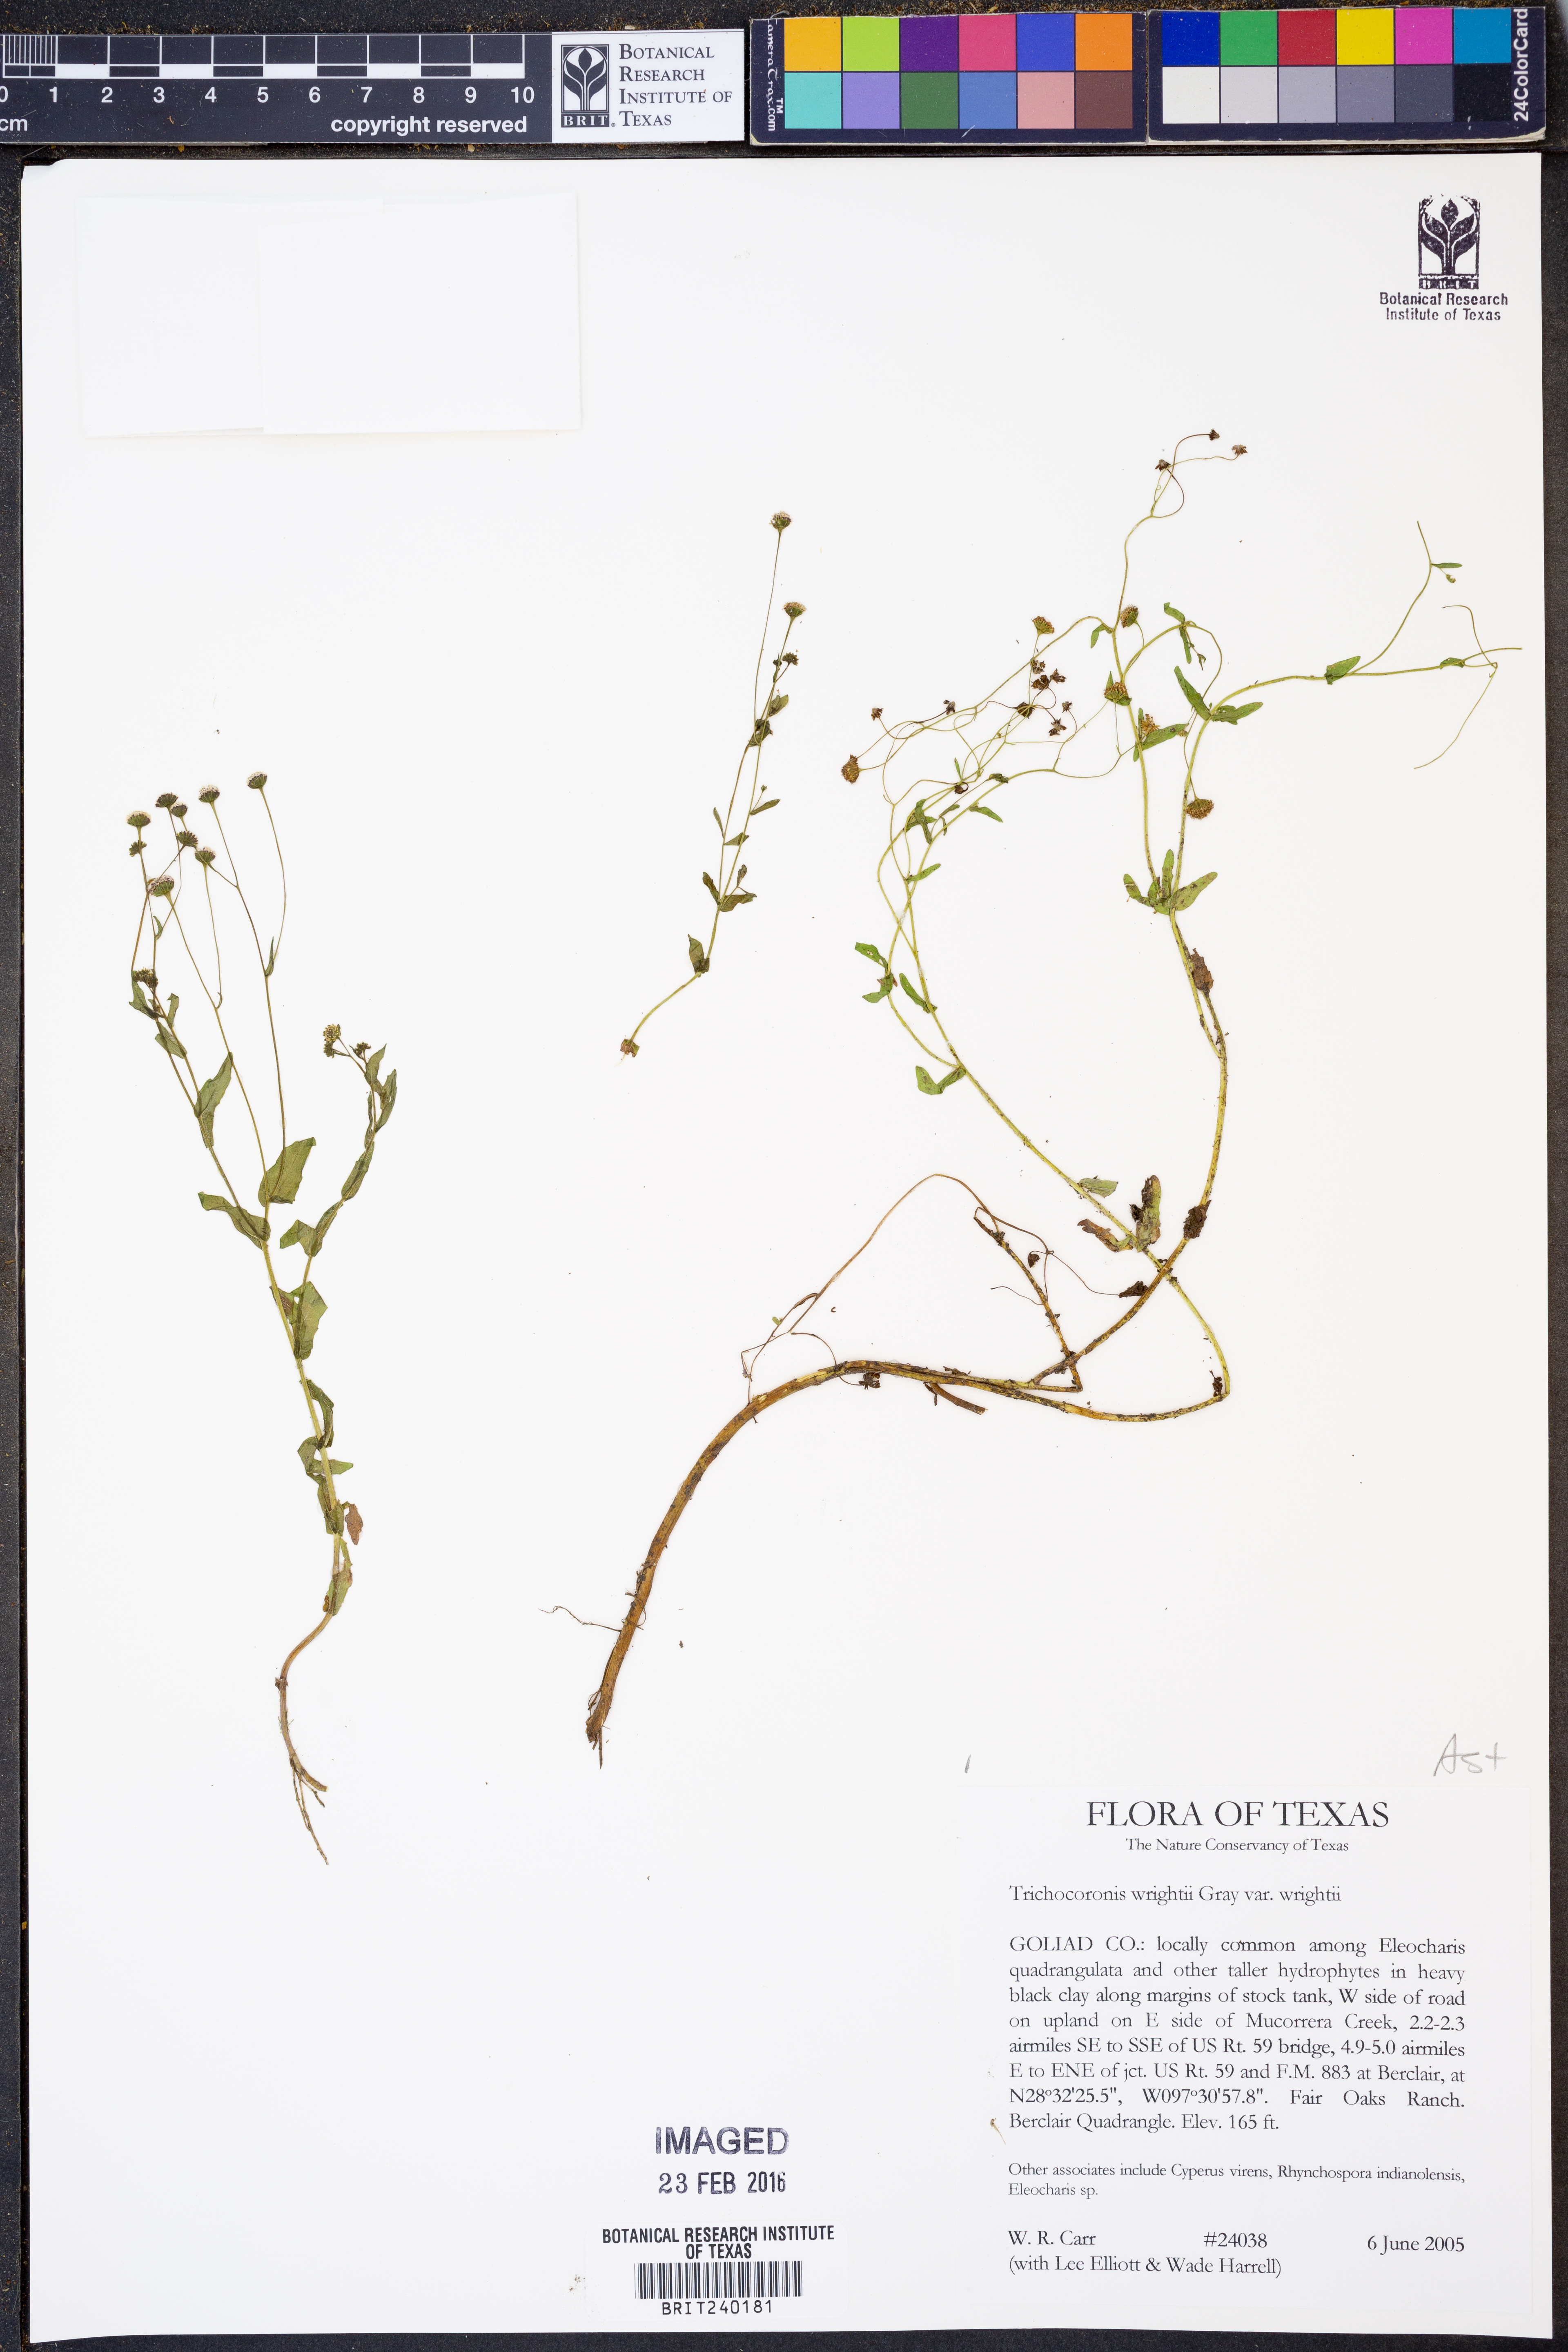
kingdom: Plantae
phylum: Tracheophyta
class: Magnoliopsida
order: Asterales
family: Asteraceae
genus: Trichocoronis
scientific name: Trichocoronis wrightii
